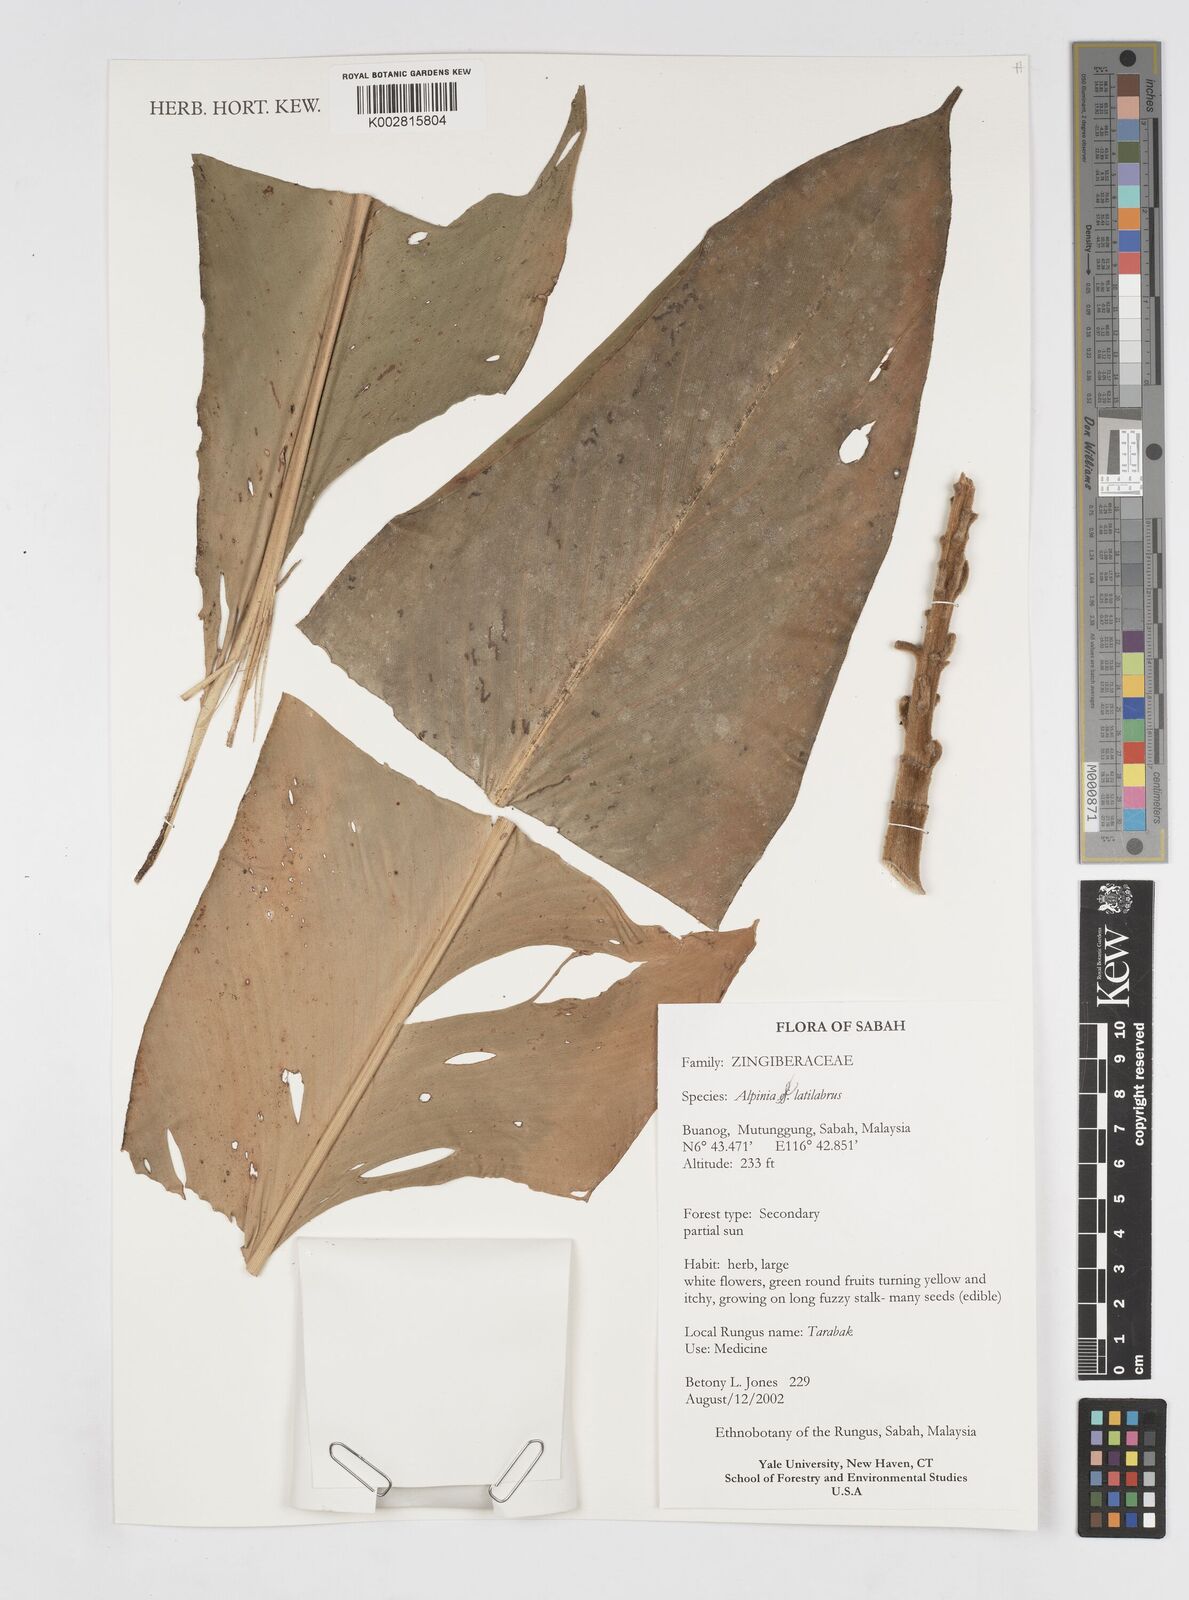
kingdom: Plantae
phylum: Tracheophyta
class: Liliopsida
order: Zingiberales
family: Zingiberaceae
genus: Alpinia
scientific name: Alpinia latilabris
